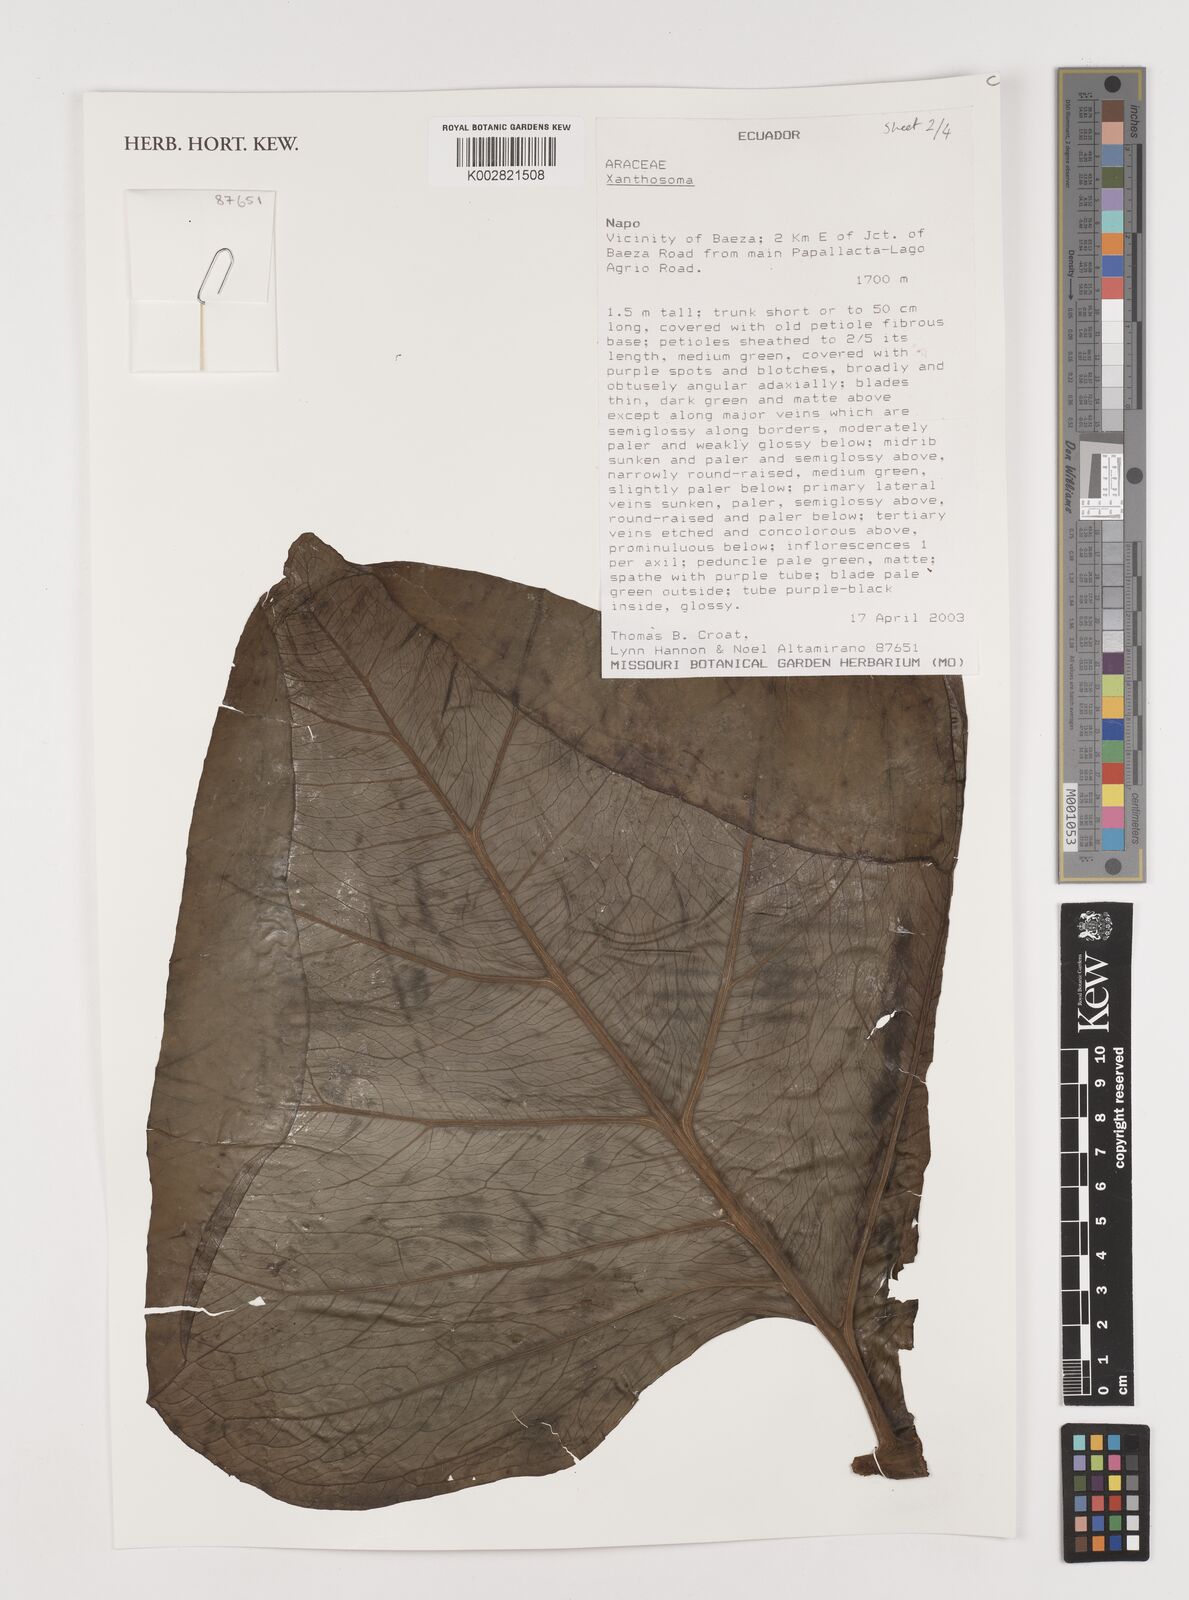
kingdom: Plantae
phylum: Tracheophyta
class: Liliopsida
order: Alismatales
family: Araceae
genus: Xanthosoma
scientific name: Xanthosoma
